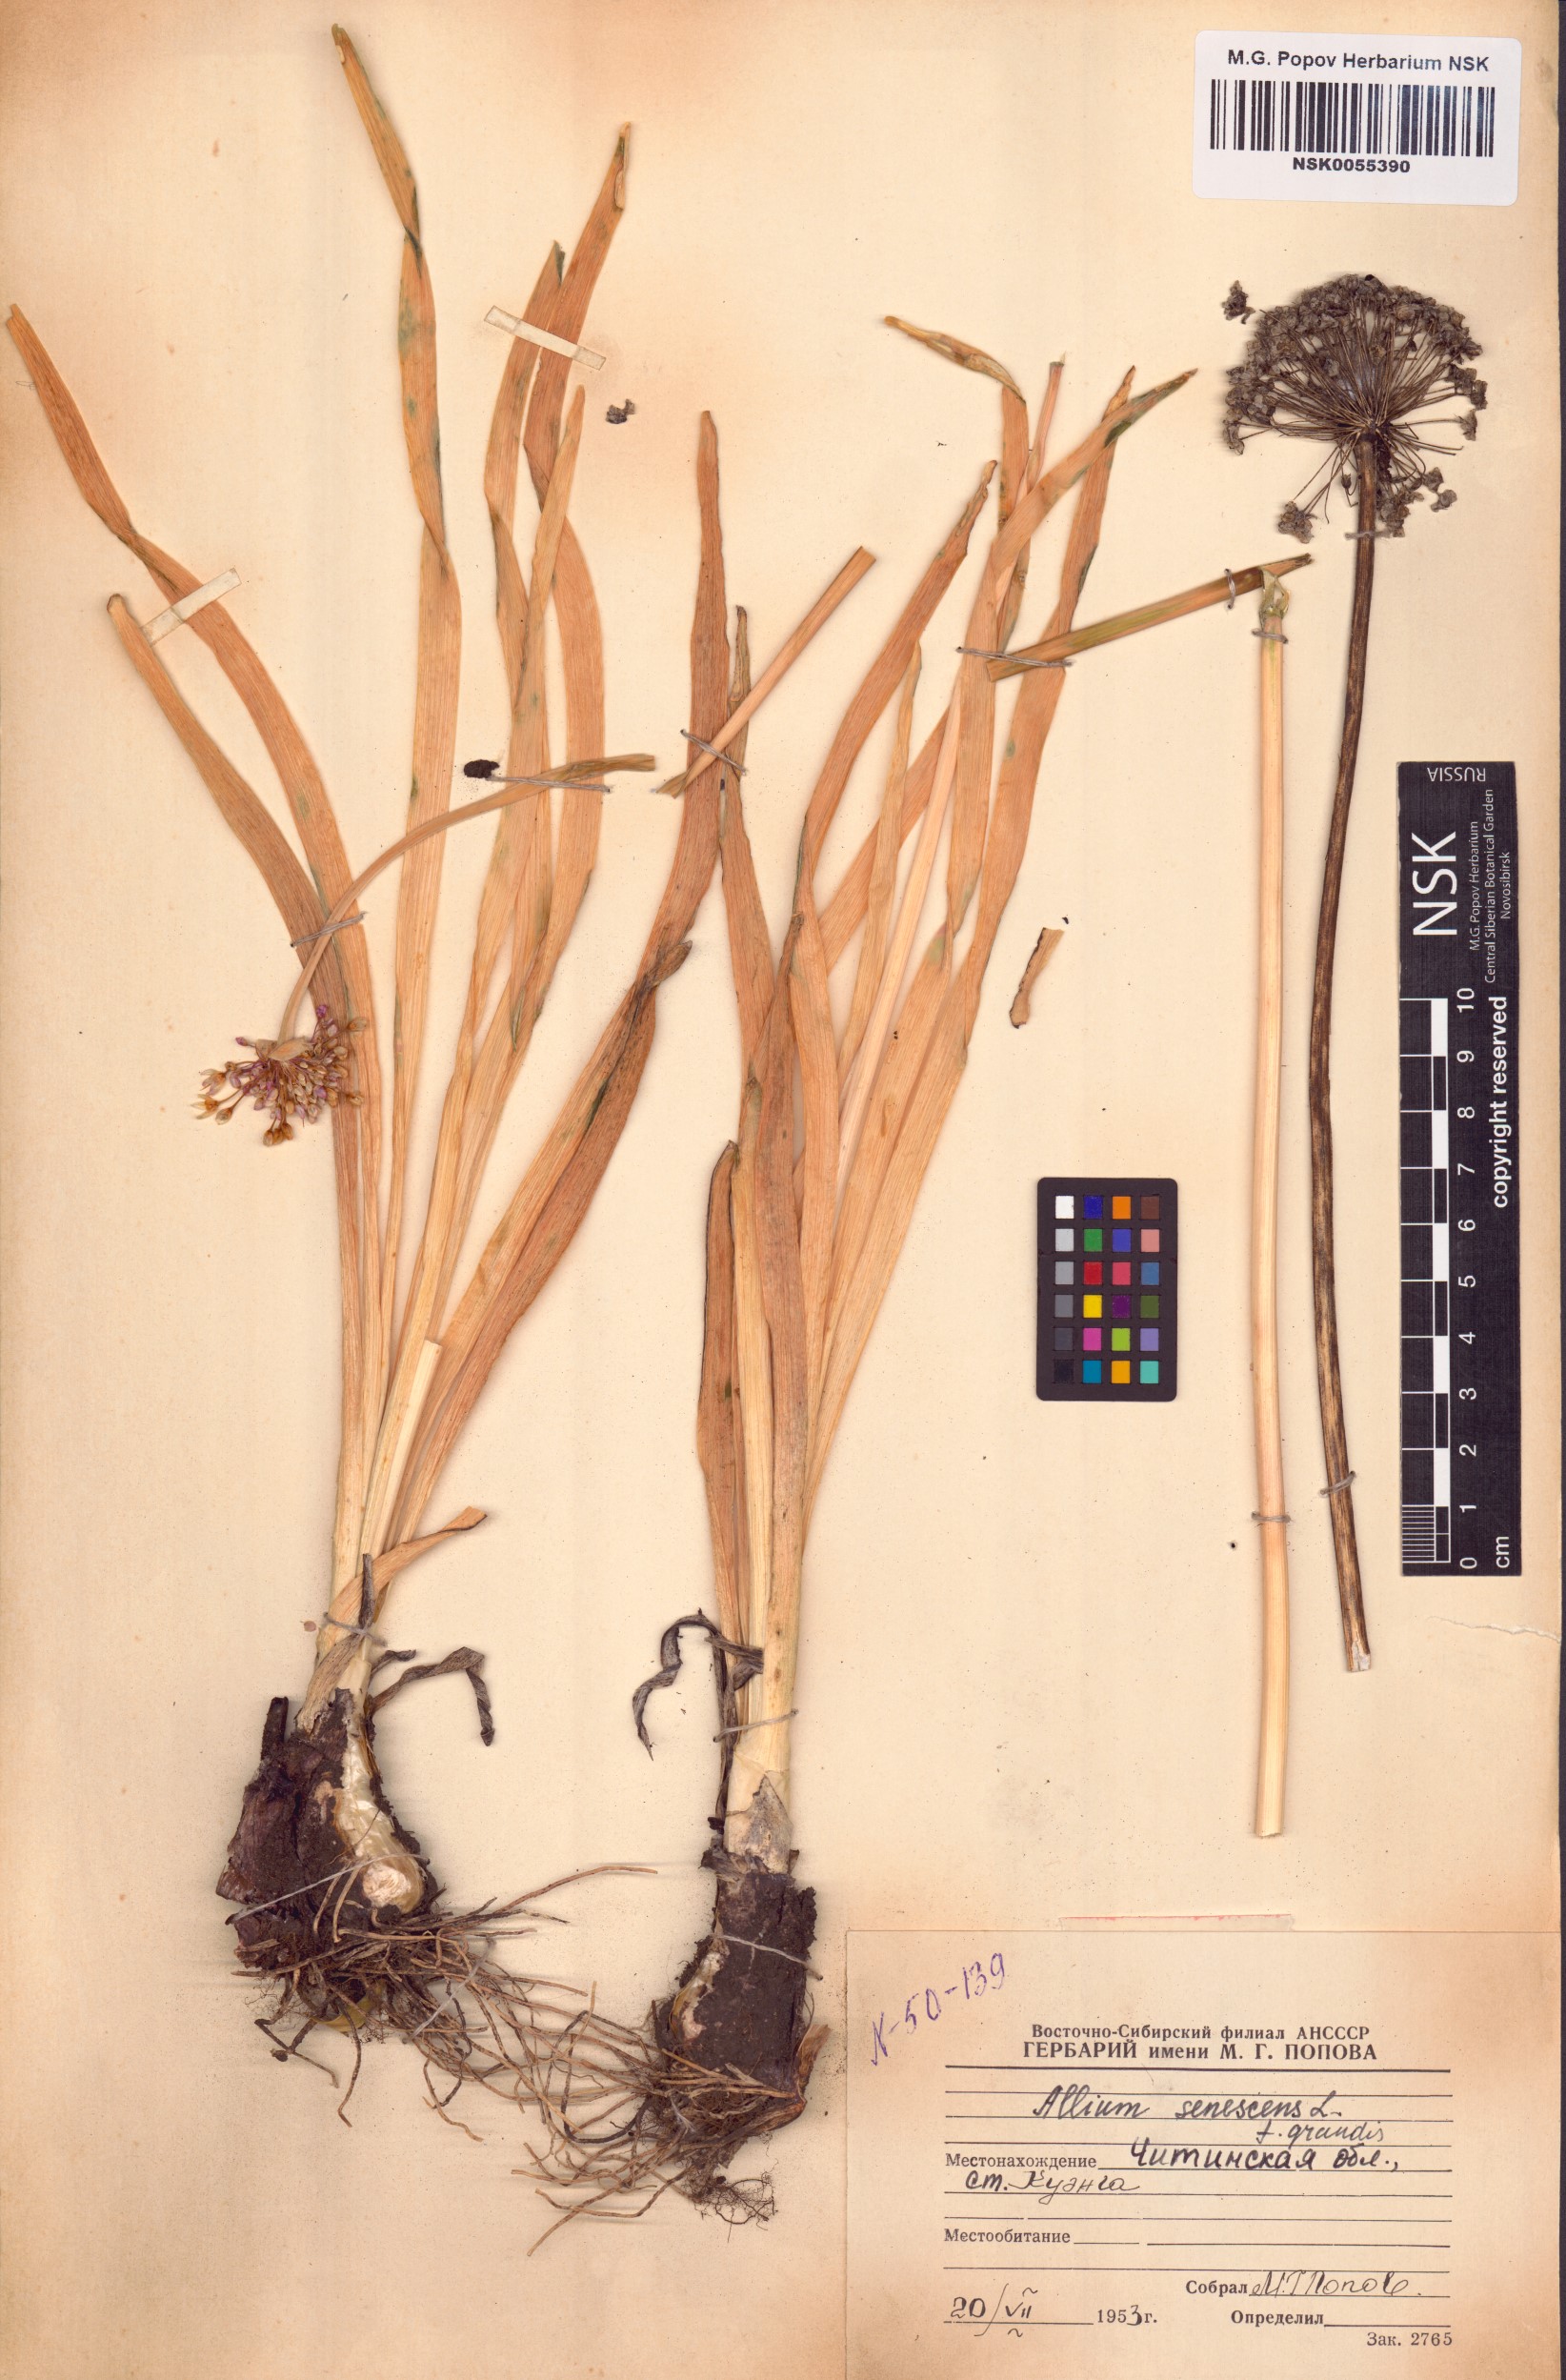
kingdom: Plantae
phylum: Tracheophyta
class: Liliopsida
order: Asparagales
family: Amaryllidaceae
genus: Allium
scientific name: Allium senescens
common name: German garlic
